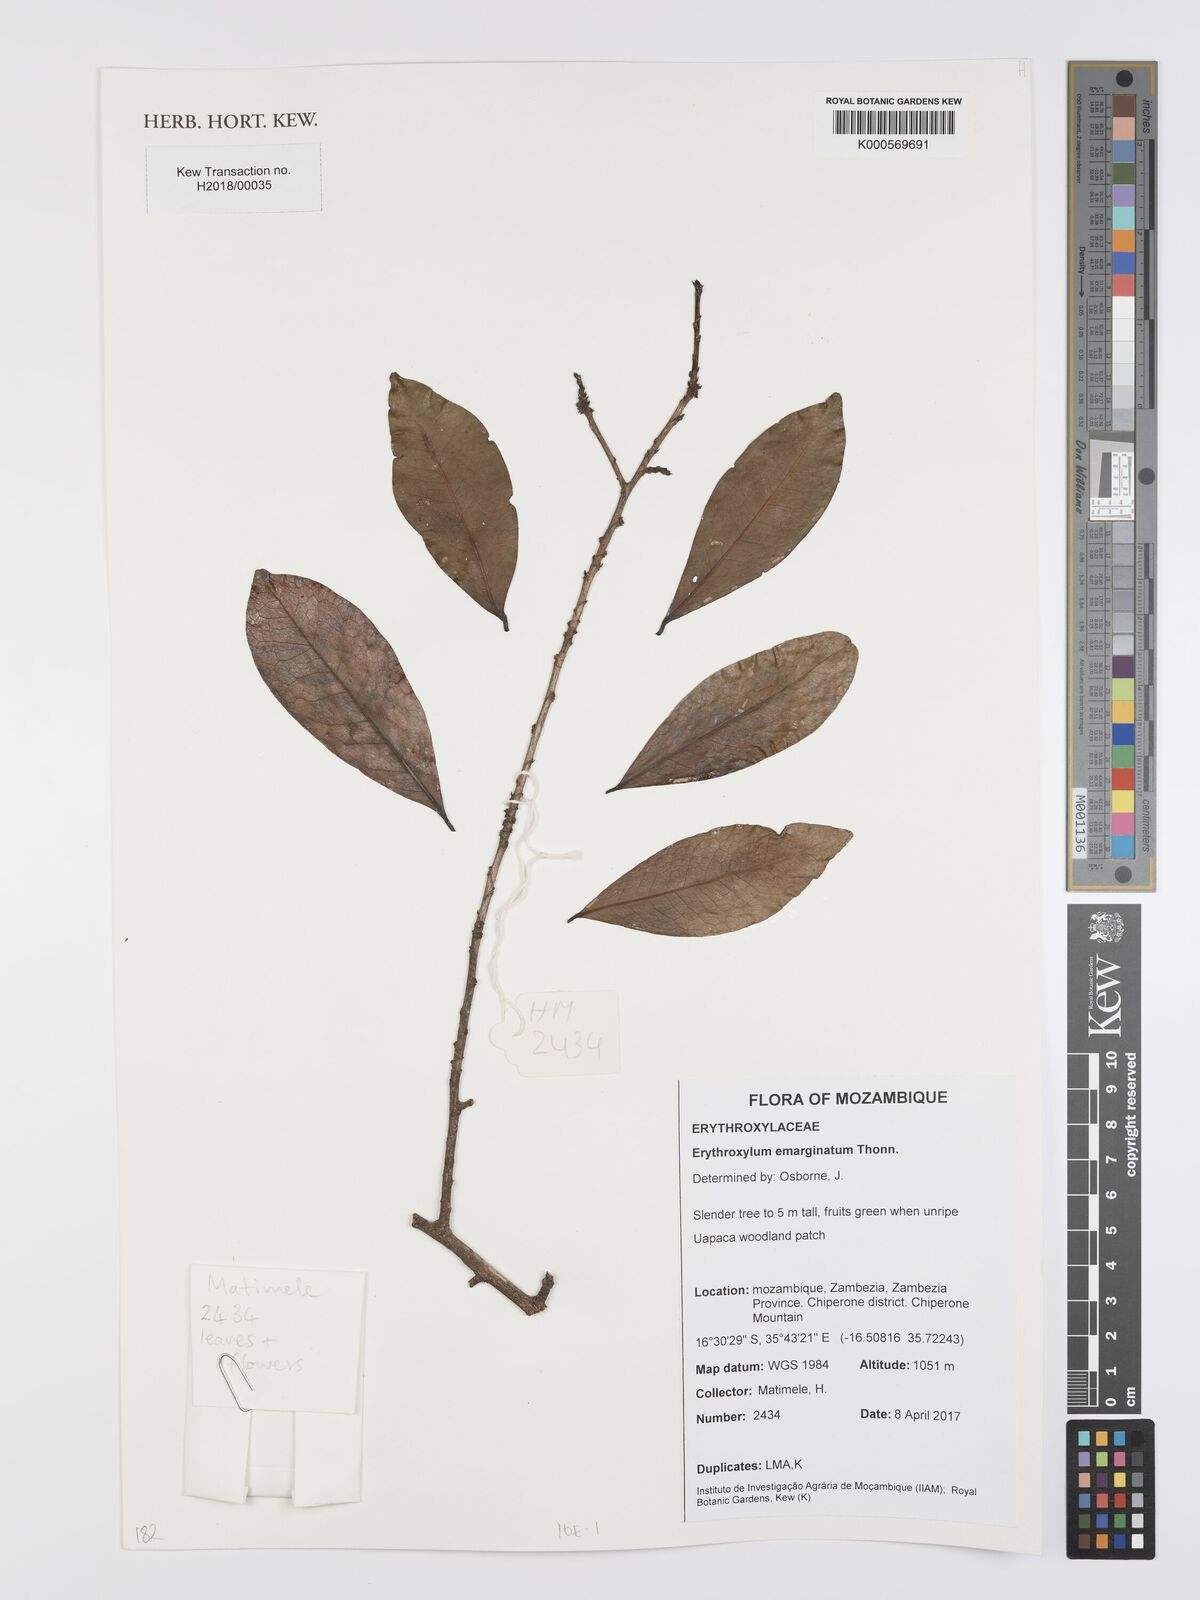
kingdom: Plantae
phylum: Tracheophyta
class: Magnoliopsida
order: Malpighiales
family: Erythroxylaceae
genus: Erythroxylum
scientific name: Erythroxylum emarginatum
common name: African coca-tree
